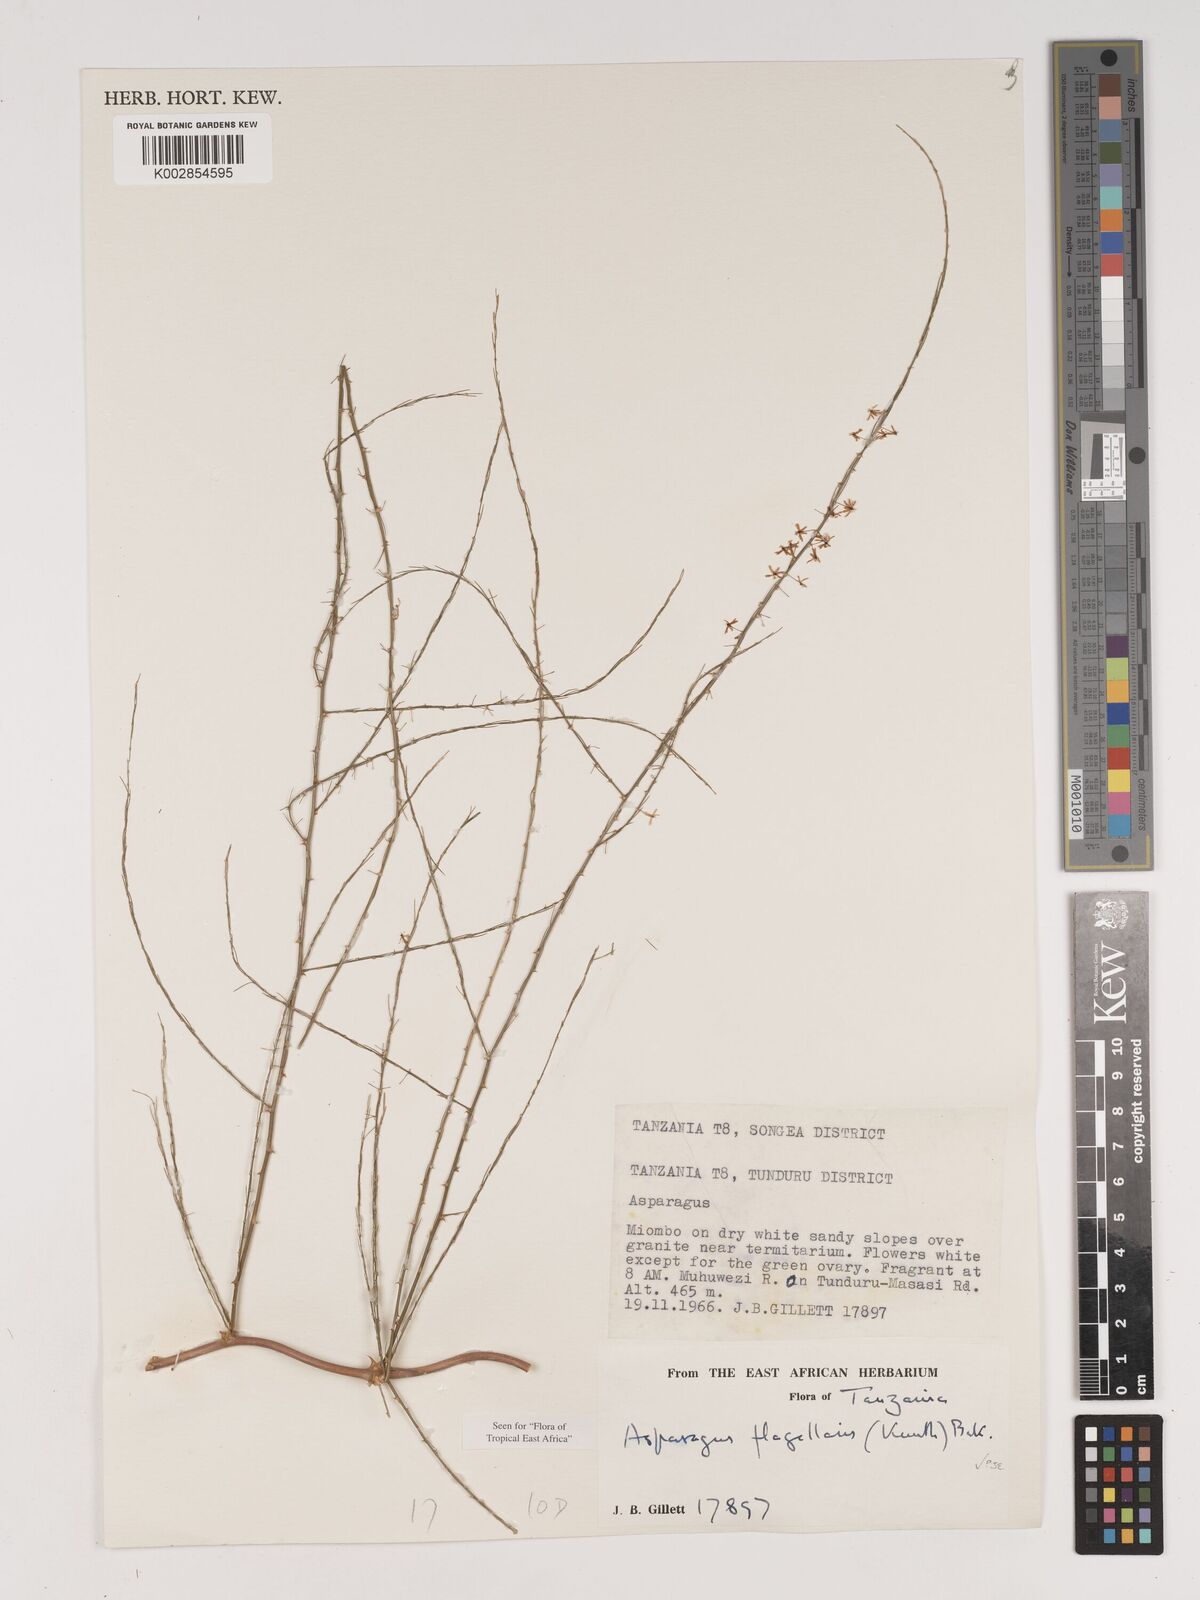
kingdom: Plantae
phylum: Tracheophyta
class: Liliopsida
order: Asparagales
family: Asparagaceae
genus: Asparagus
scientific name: Asparagus flagellaris
